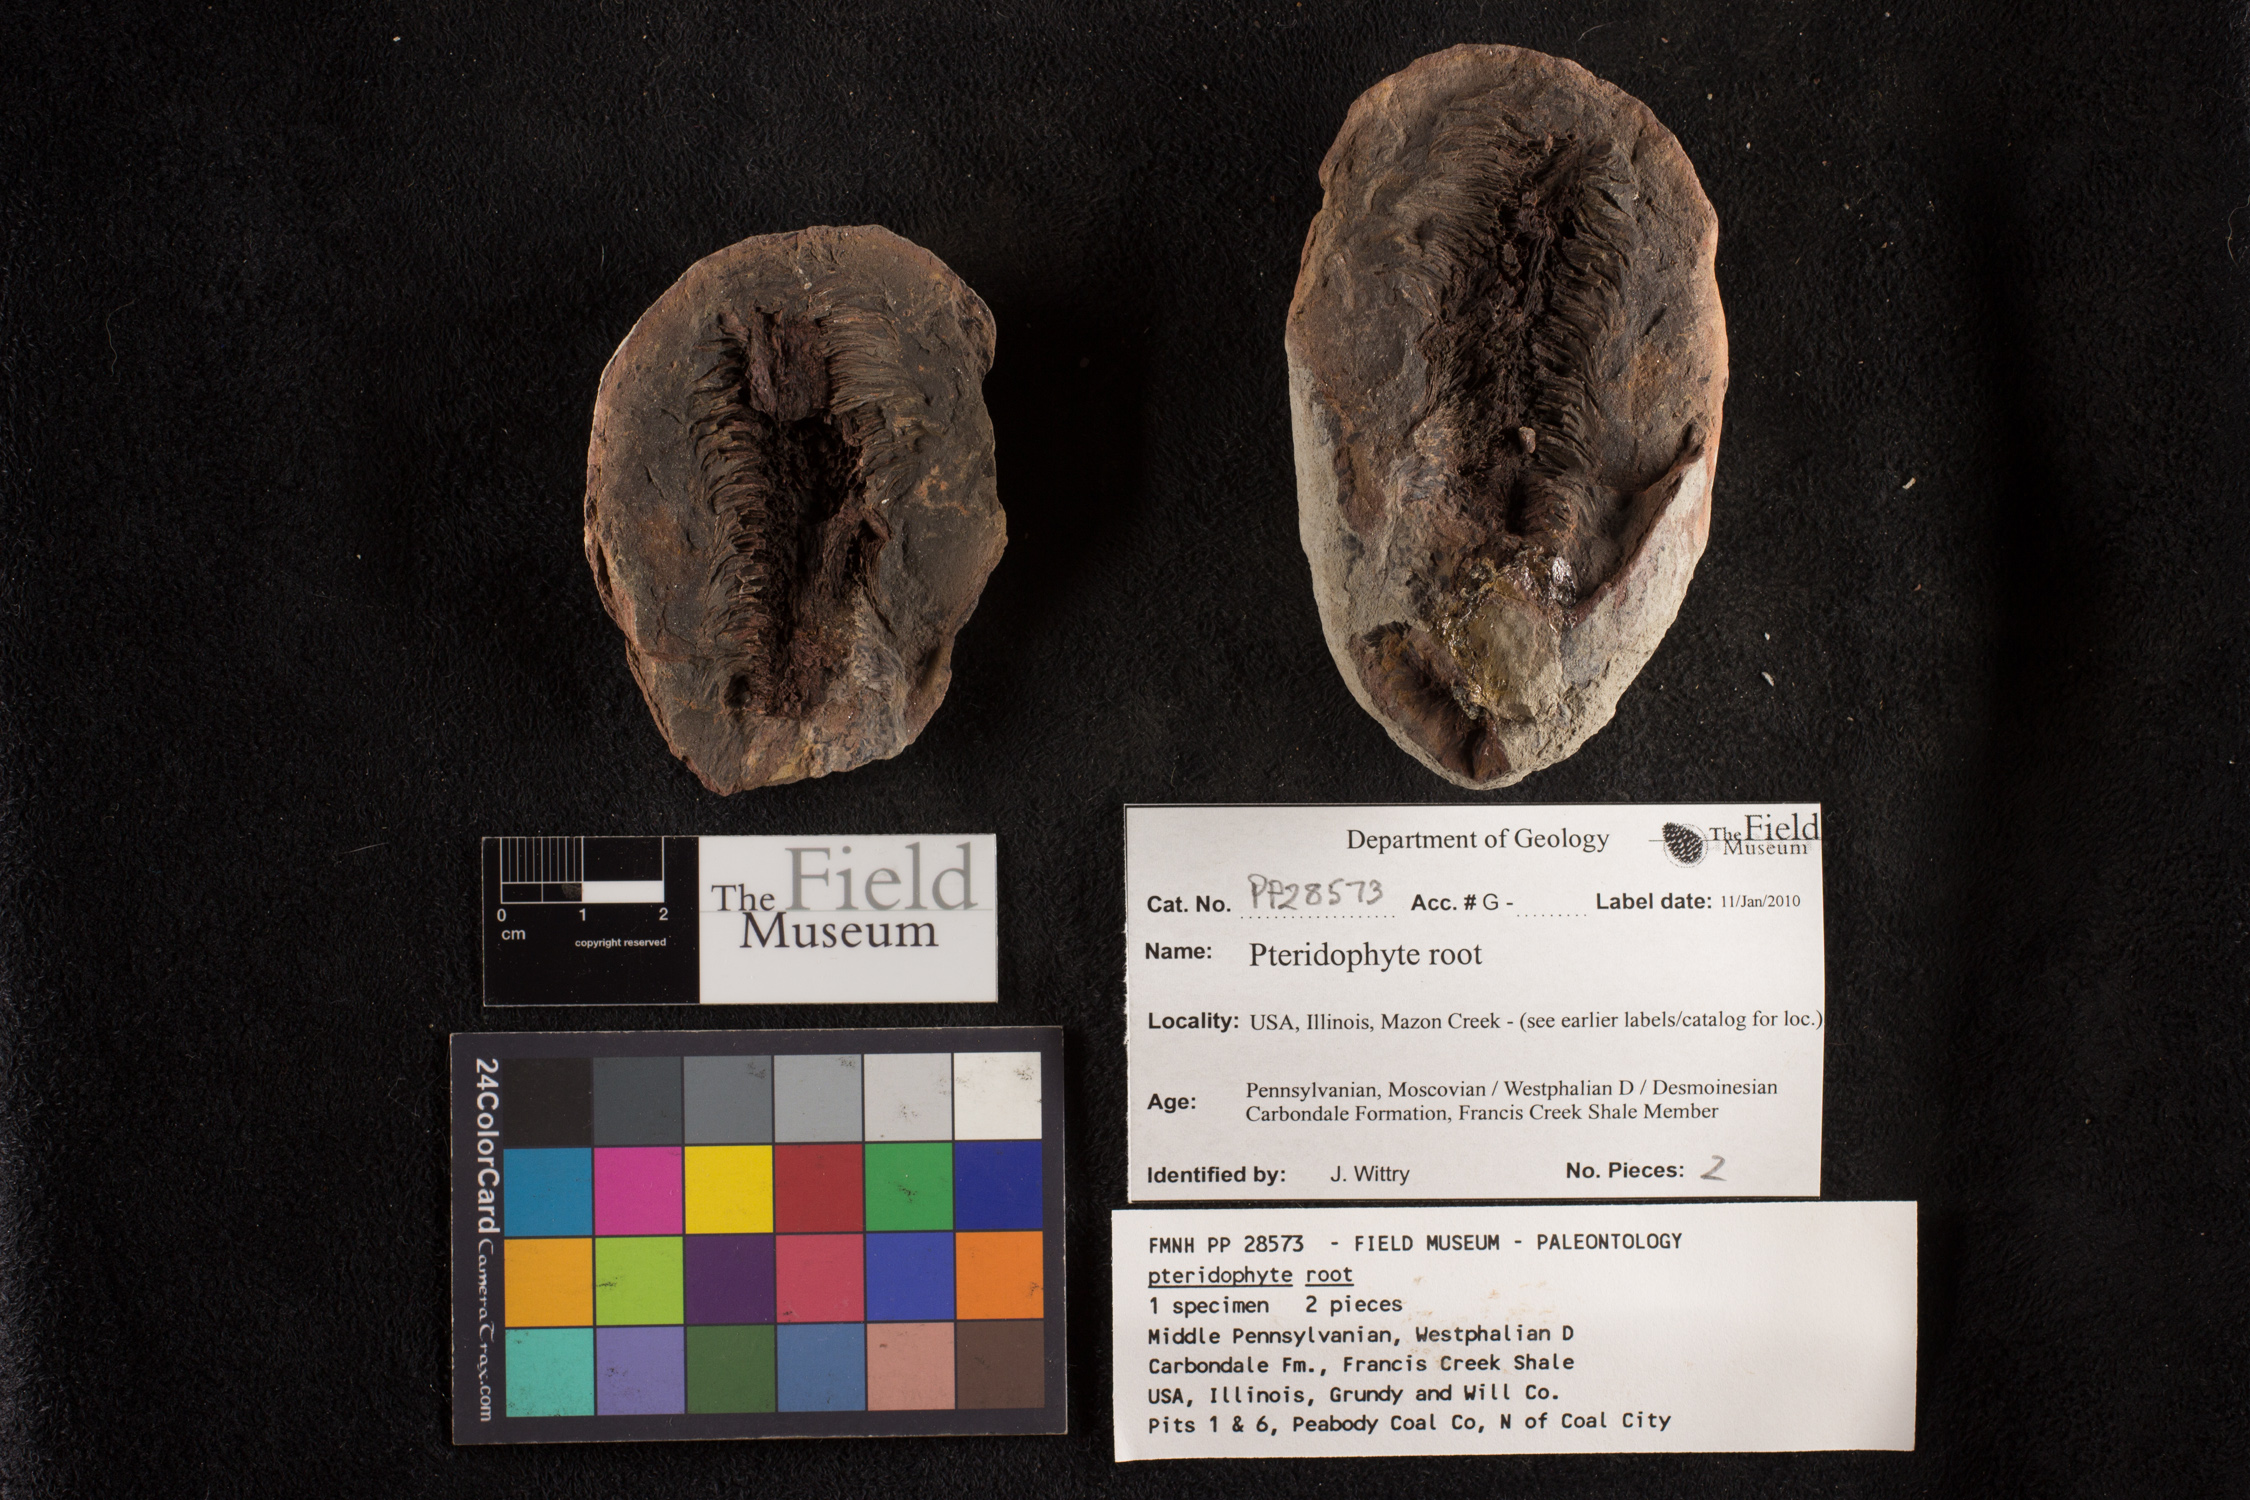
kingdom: Plantae
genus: Rhacophyllum
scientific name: Rhacophyllum
